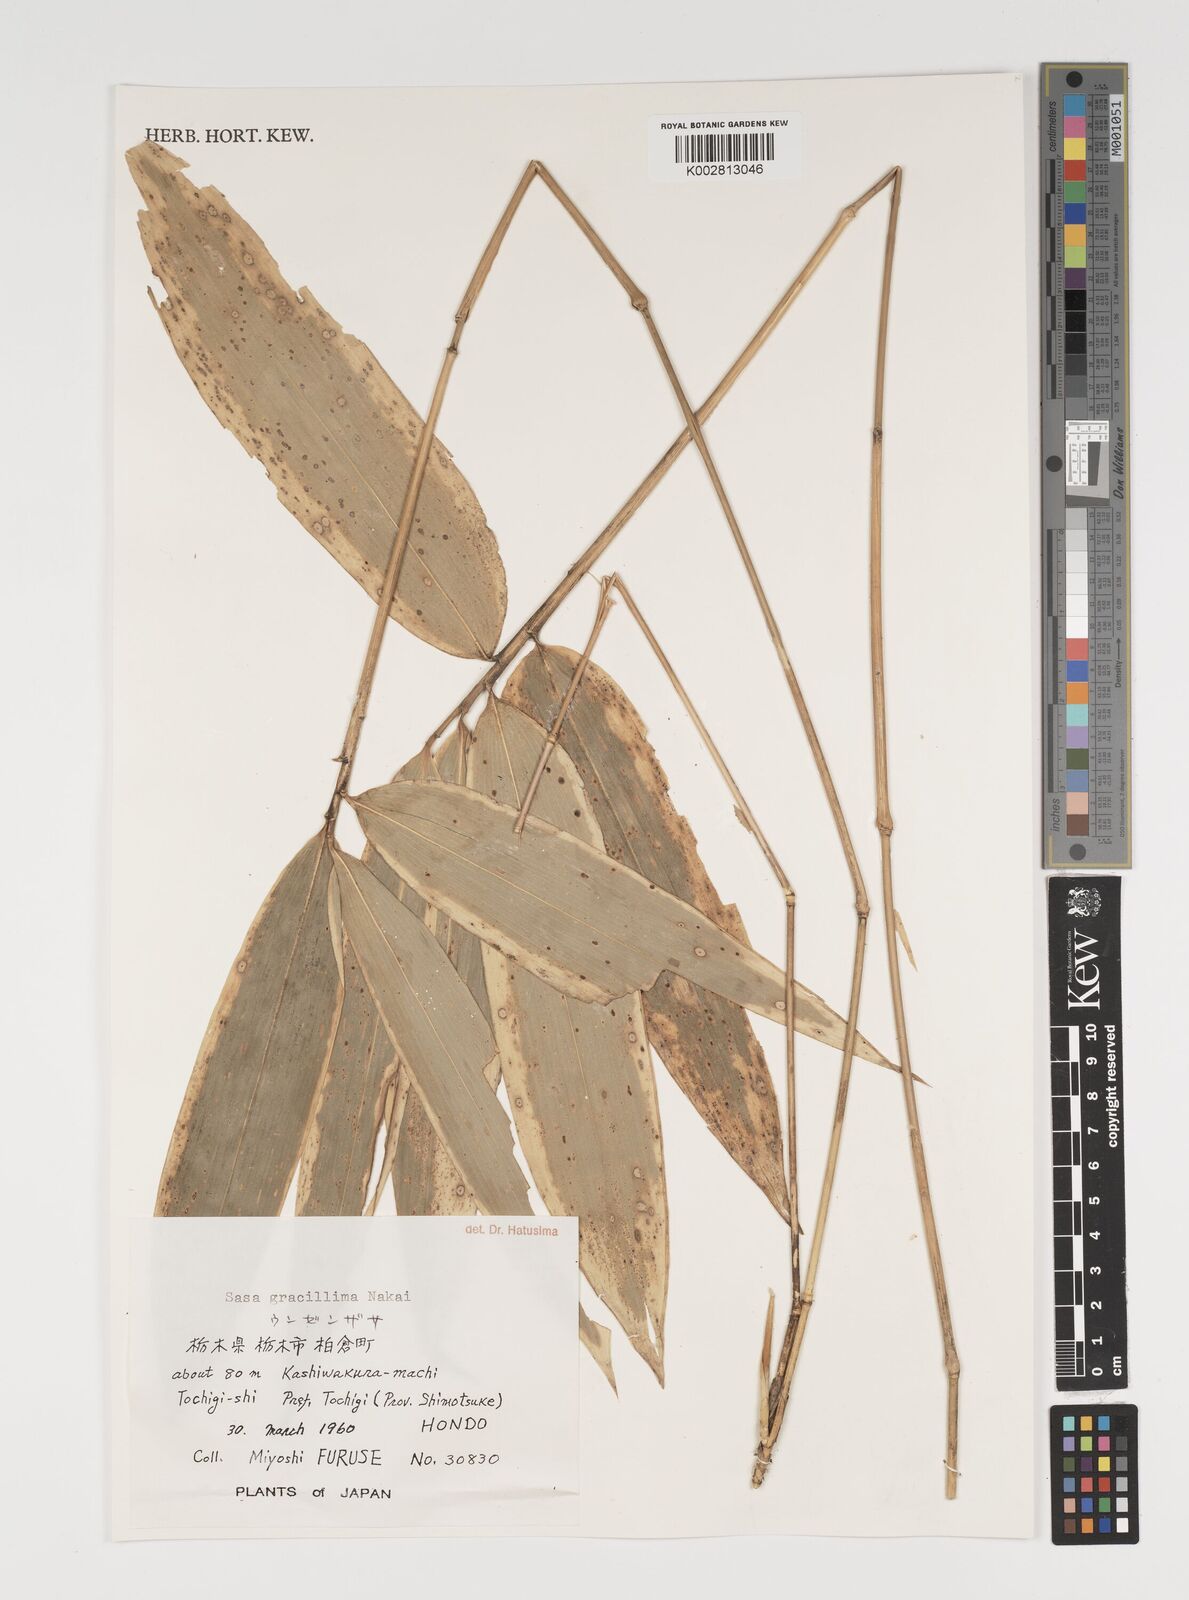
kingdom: Plantae
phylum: Tracheophyta
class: Liliopsida
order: Poales
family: Poaceae
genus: Sasa
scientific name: Sasa gracillima
